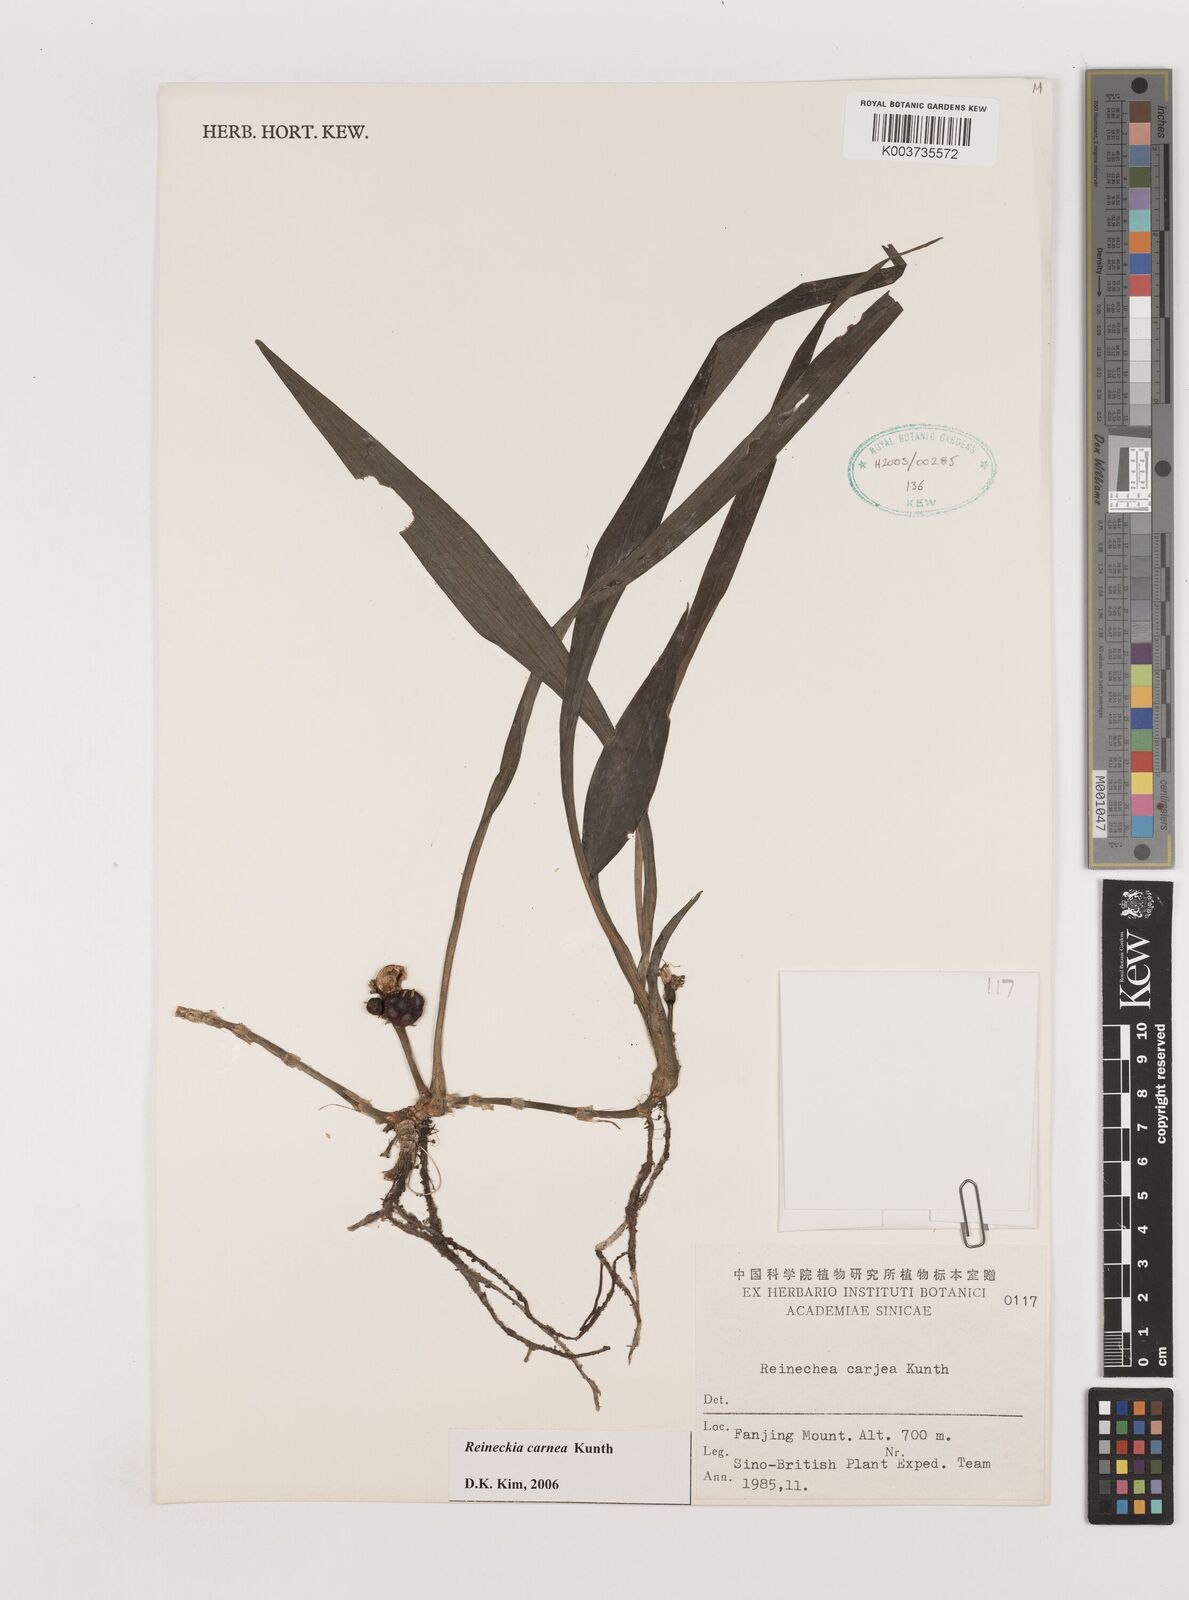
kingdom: Plantae
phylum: Tracheophyta
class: Liliopsida
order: Asparagales
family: Asparagaceae
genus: Reineckea
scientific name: Reineckea carnea
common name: Reineckea
